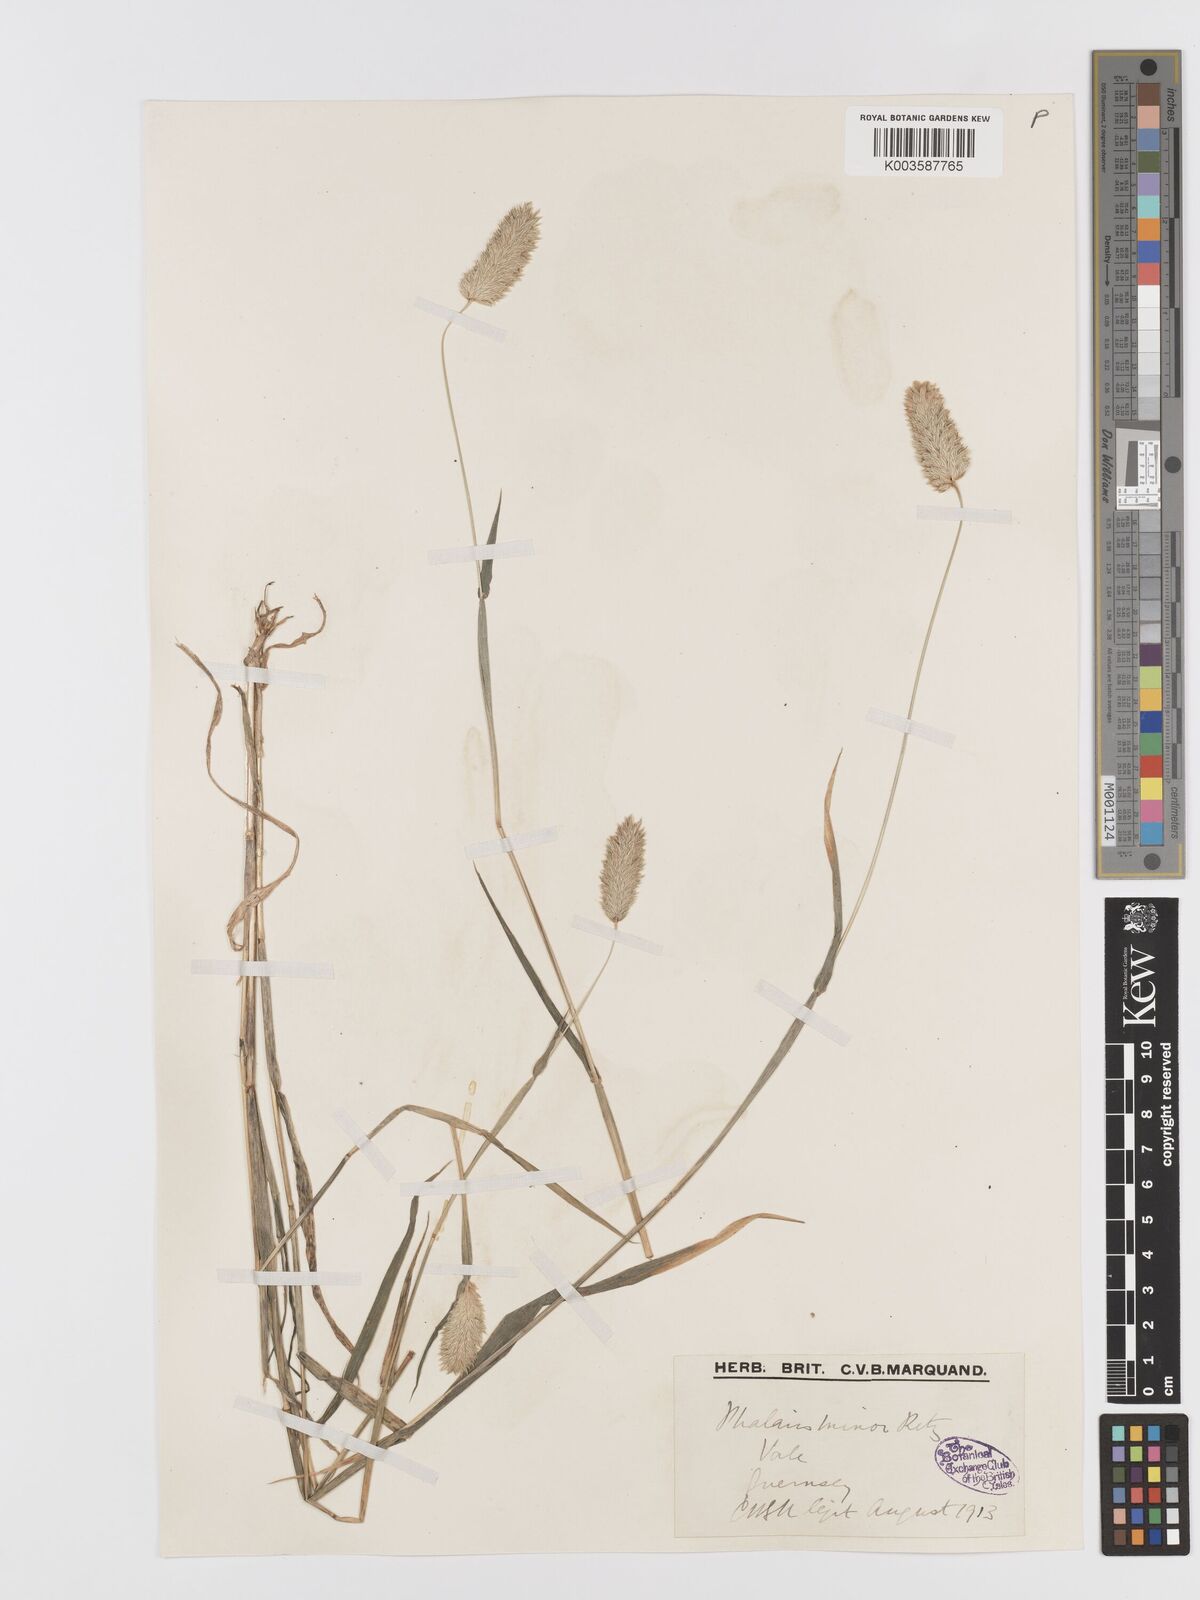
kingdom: Plantae
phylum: Tracheophyta
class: Liliopsida
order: Poales
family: Poaceae
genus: Phalaris
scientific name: Phalaris minor
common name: Littleseed canarygrass
